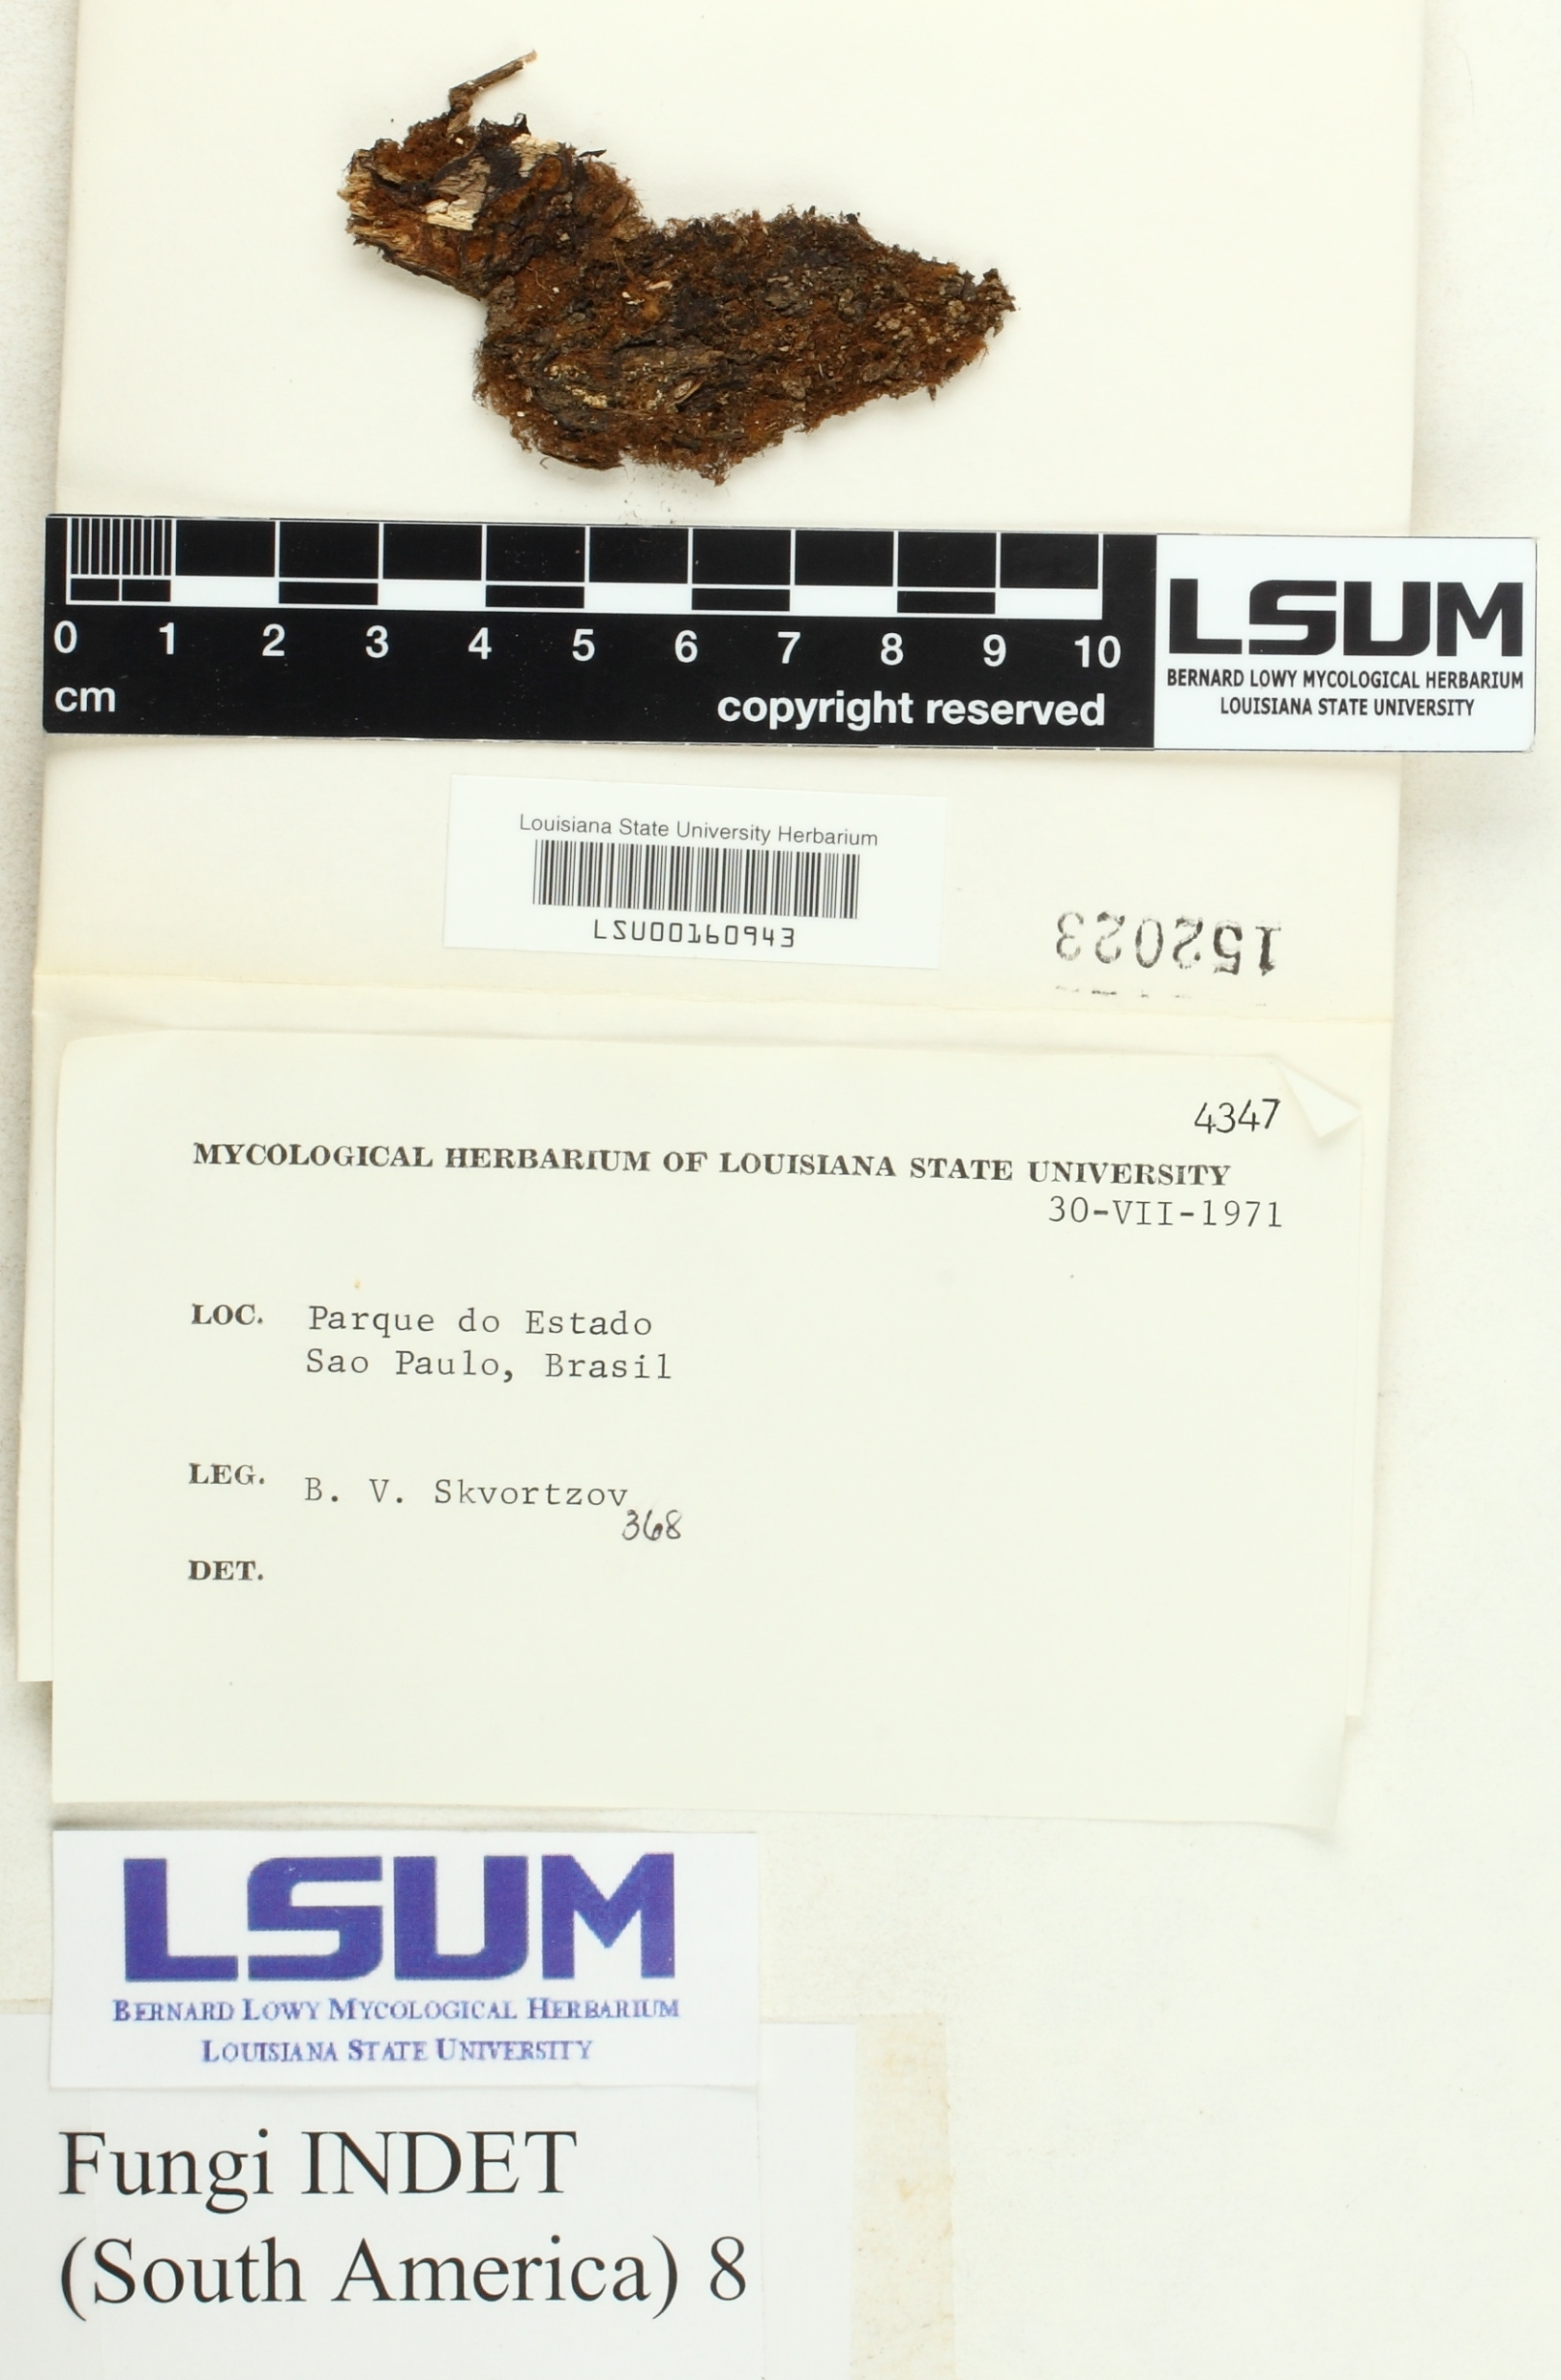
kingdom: Fungi
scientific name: Fungi
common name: Fungi
